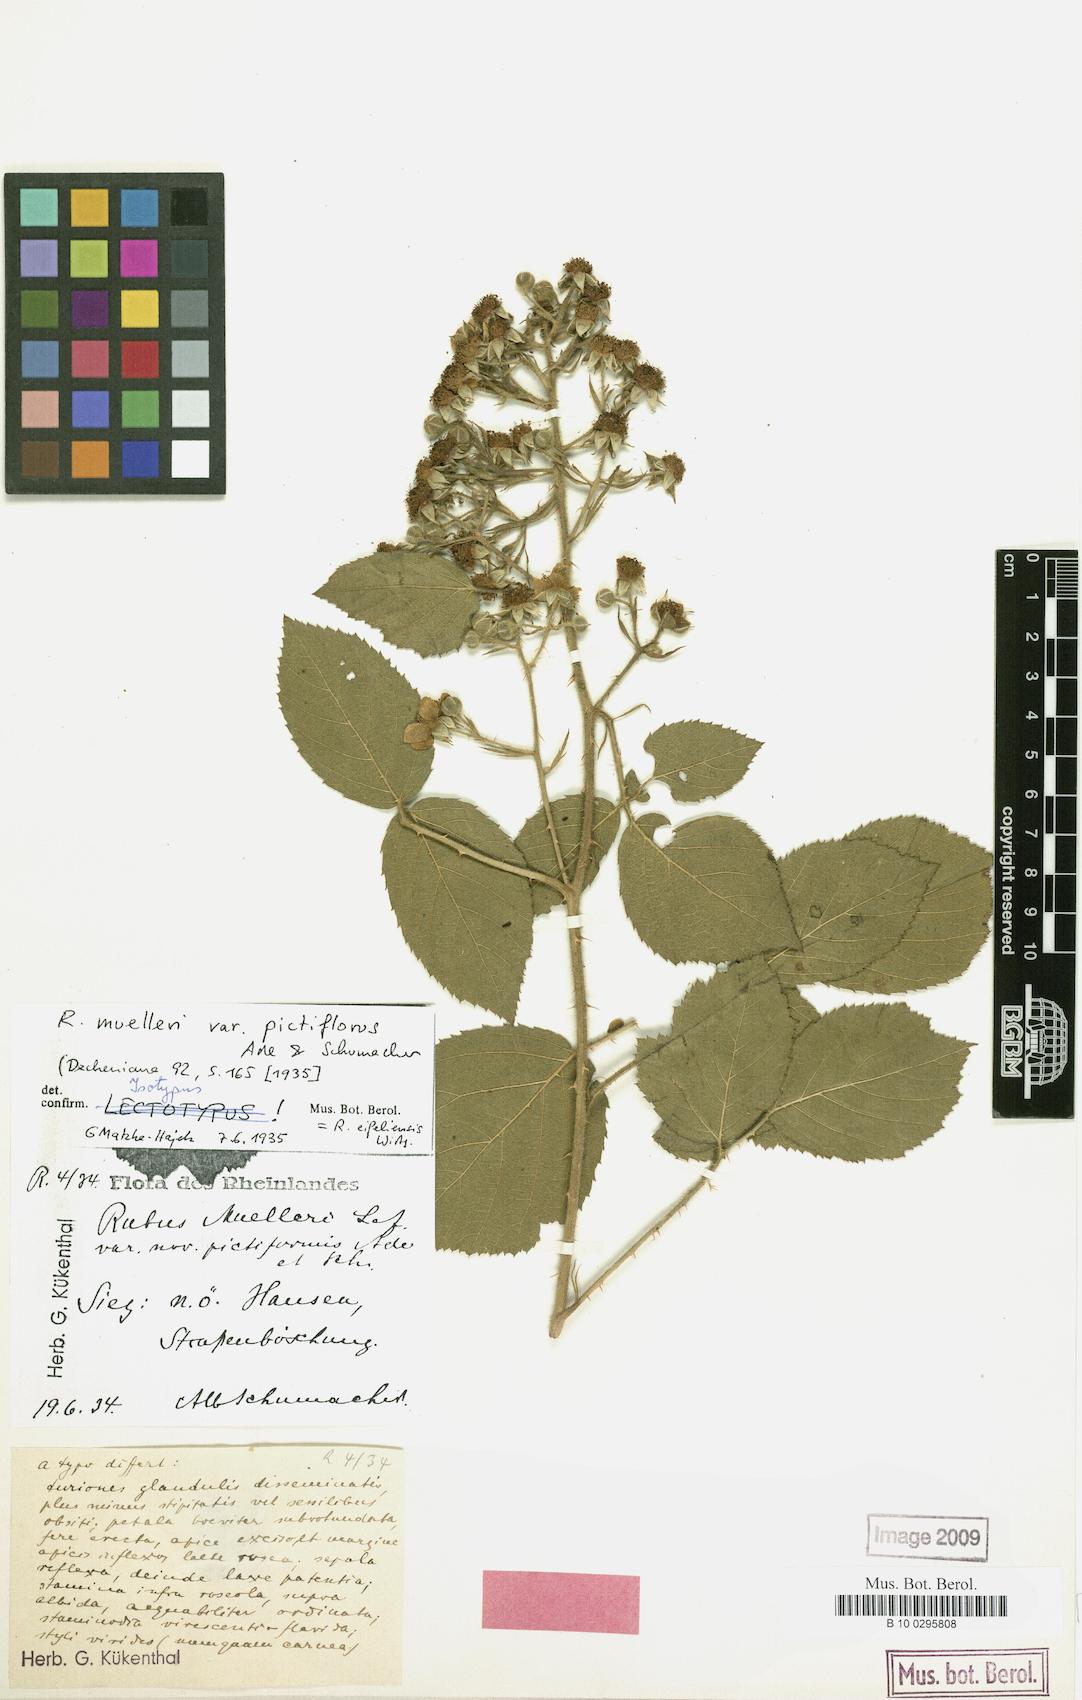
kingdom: Plantae
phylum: Tracheophyta
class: Magnoliopsida
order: Rosales
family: Rosaceae
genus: Rubus
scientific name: Rubus eifeliensis
